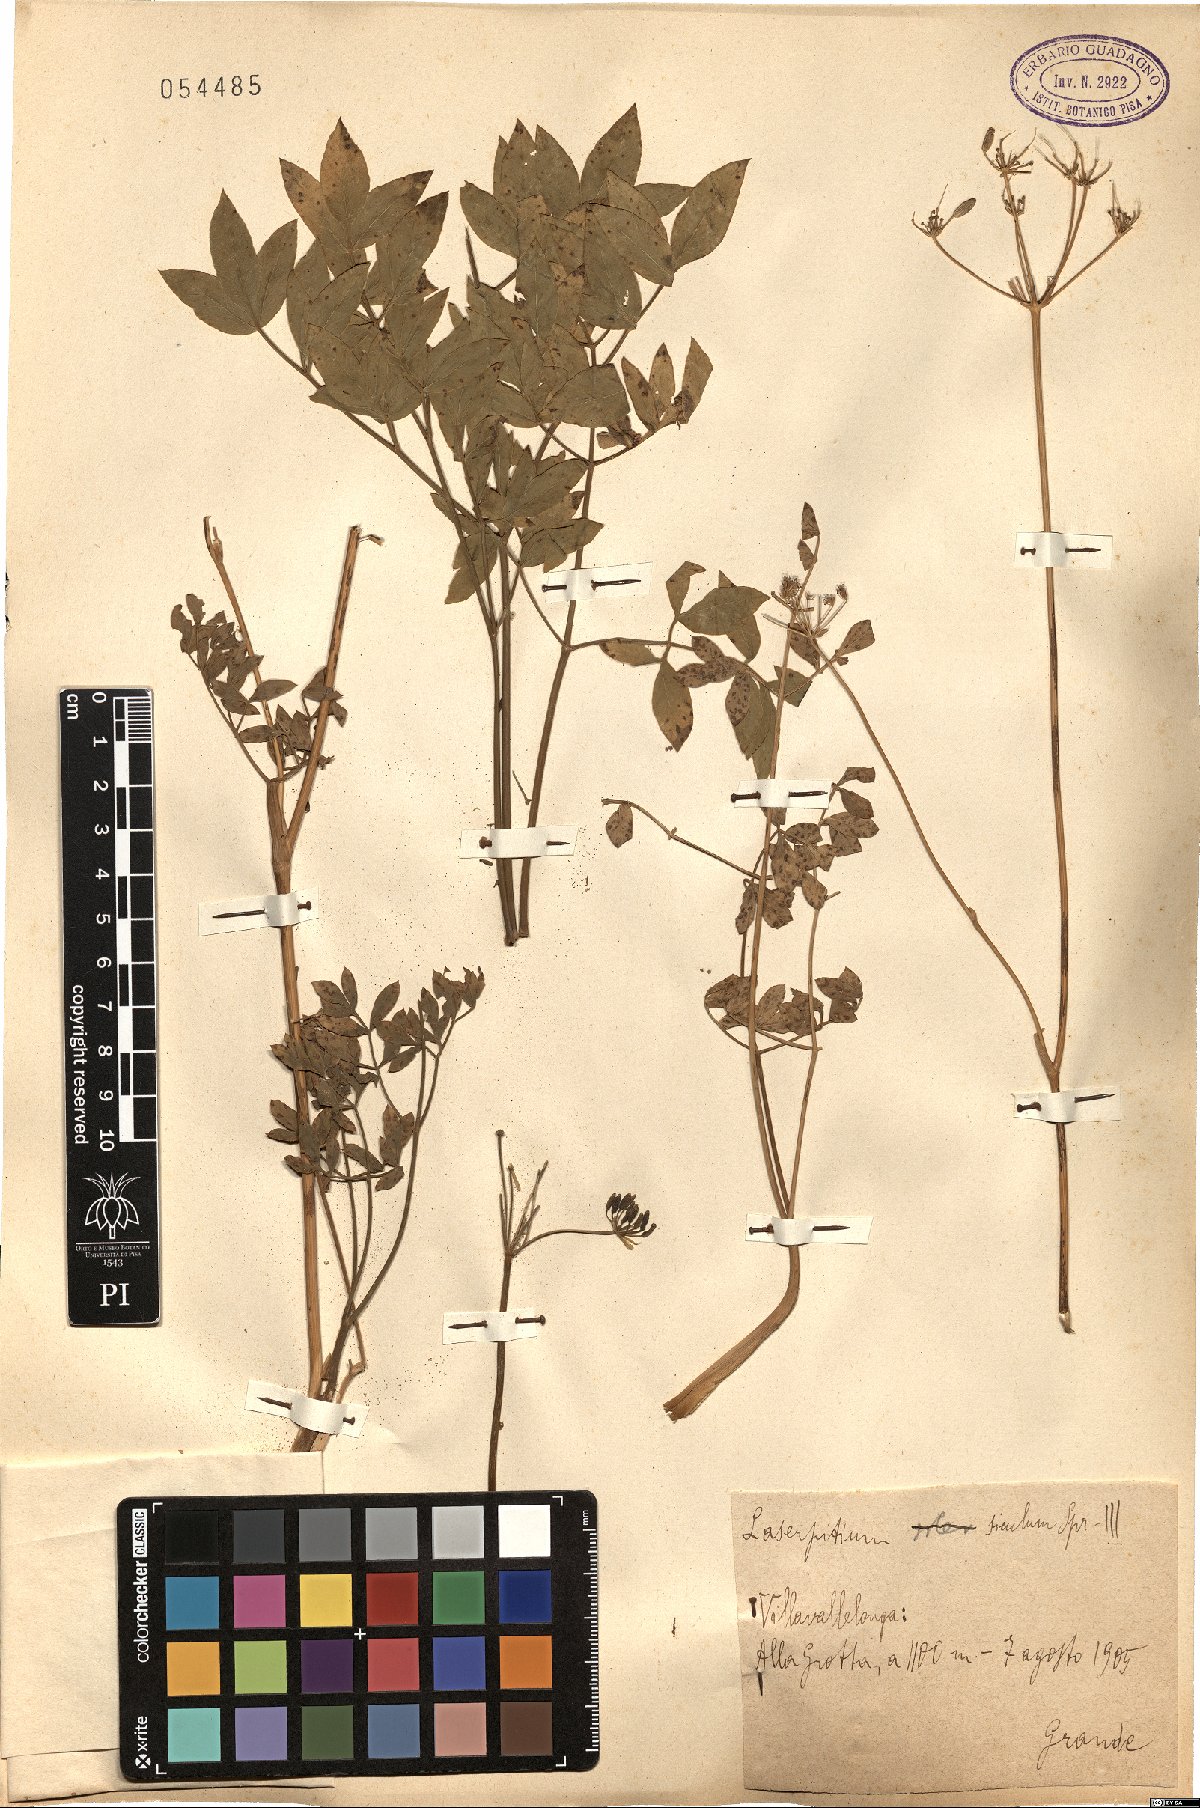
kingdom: Plantae
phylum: Tracheophyta
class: Magnoliopsida
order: Apiales
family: Apiaceae
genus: Siler
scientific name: Siler montanum
